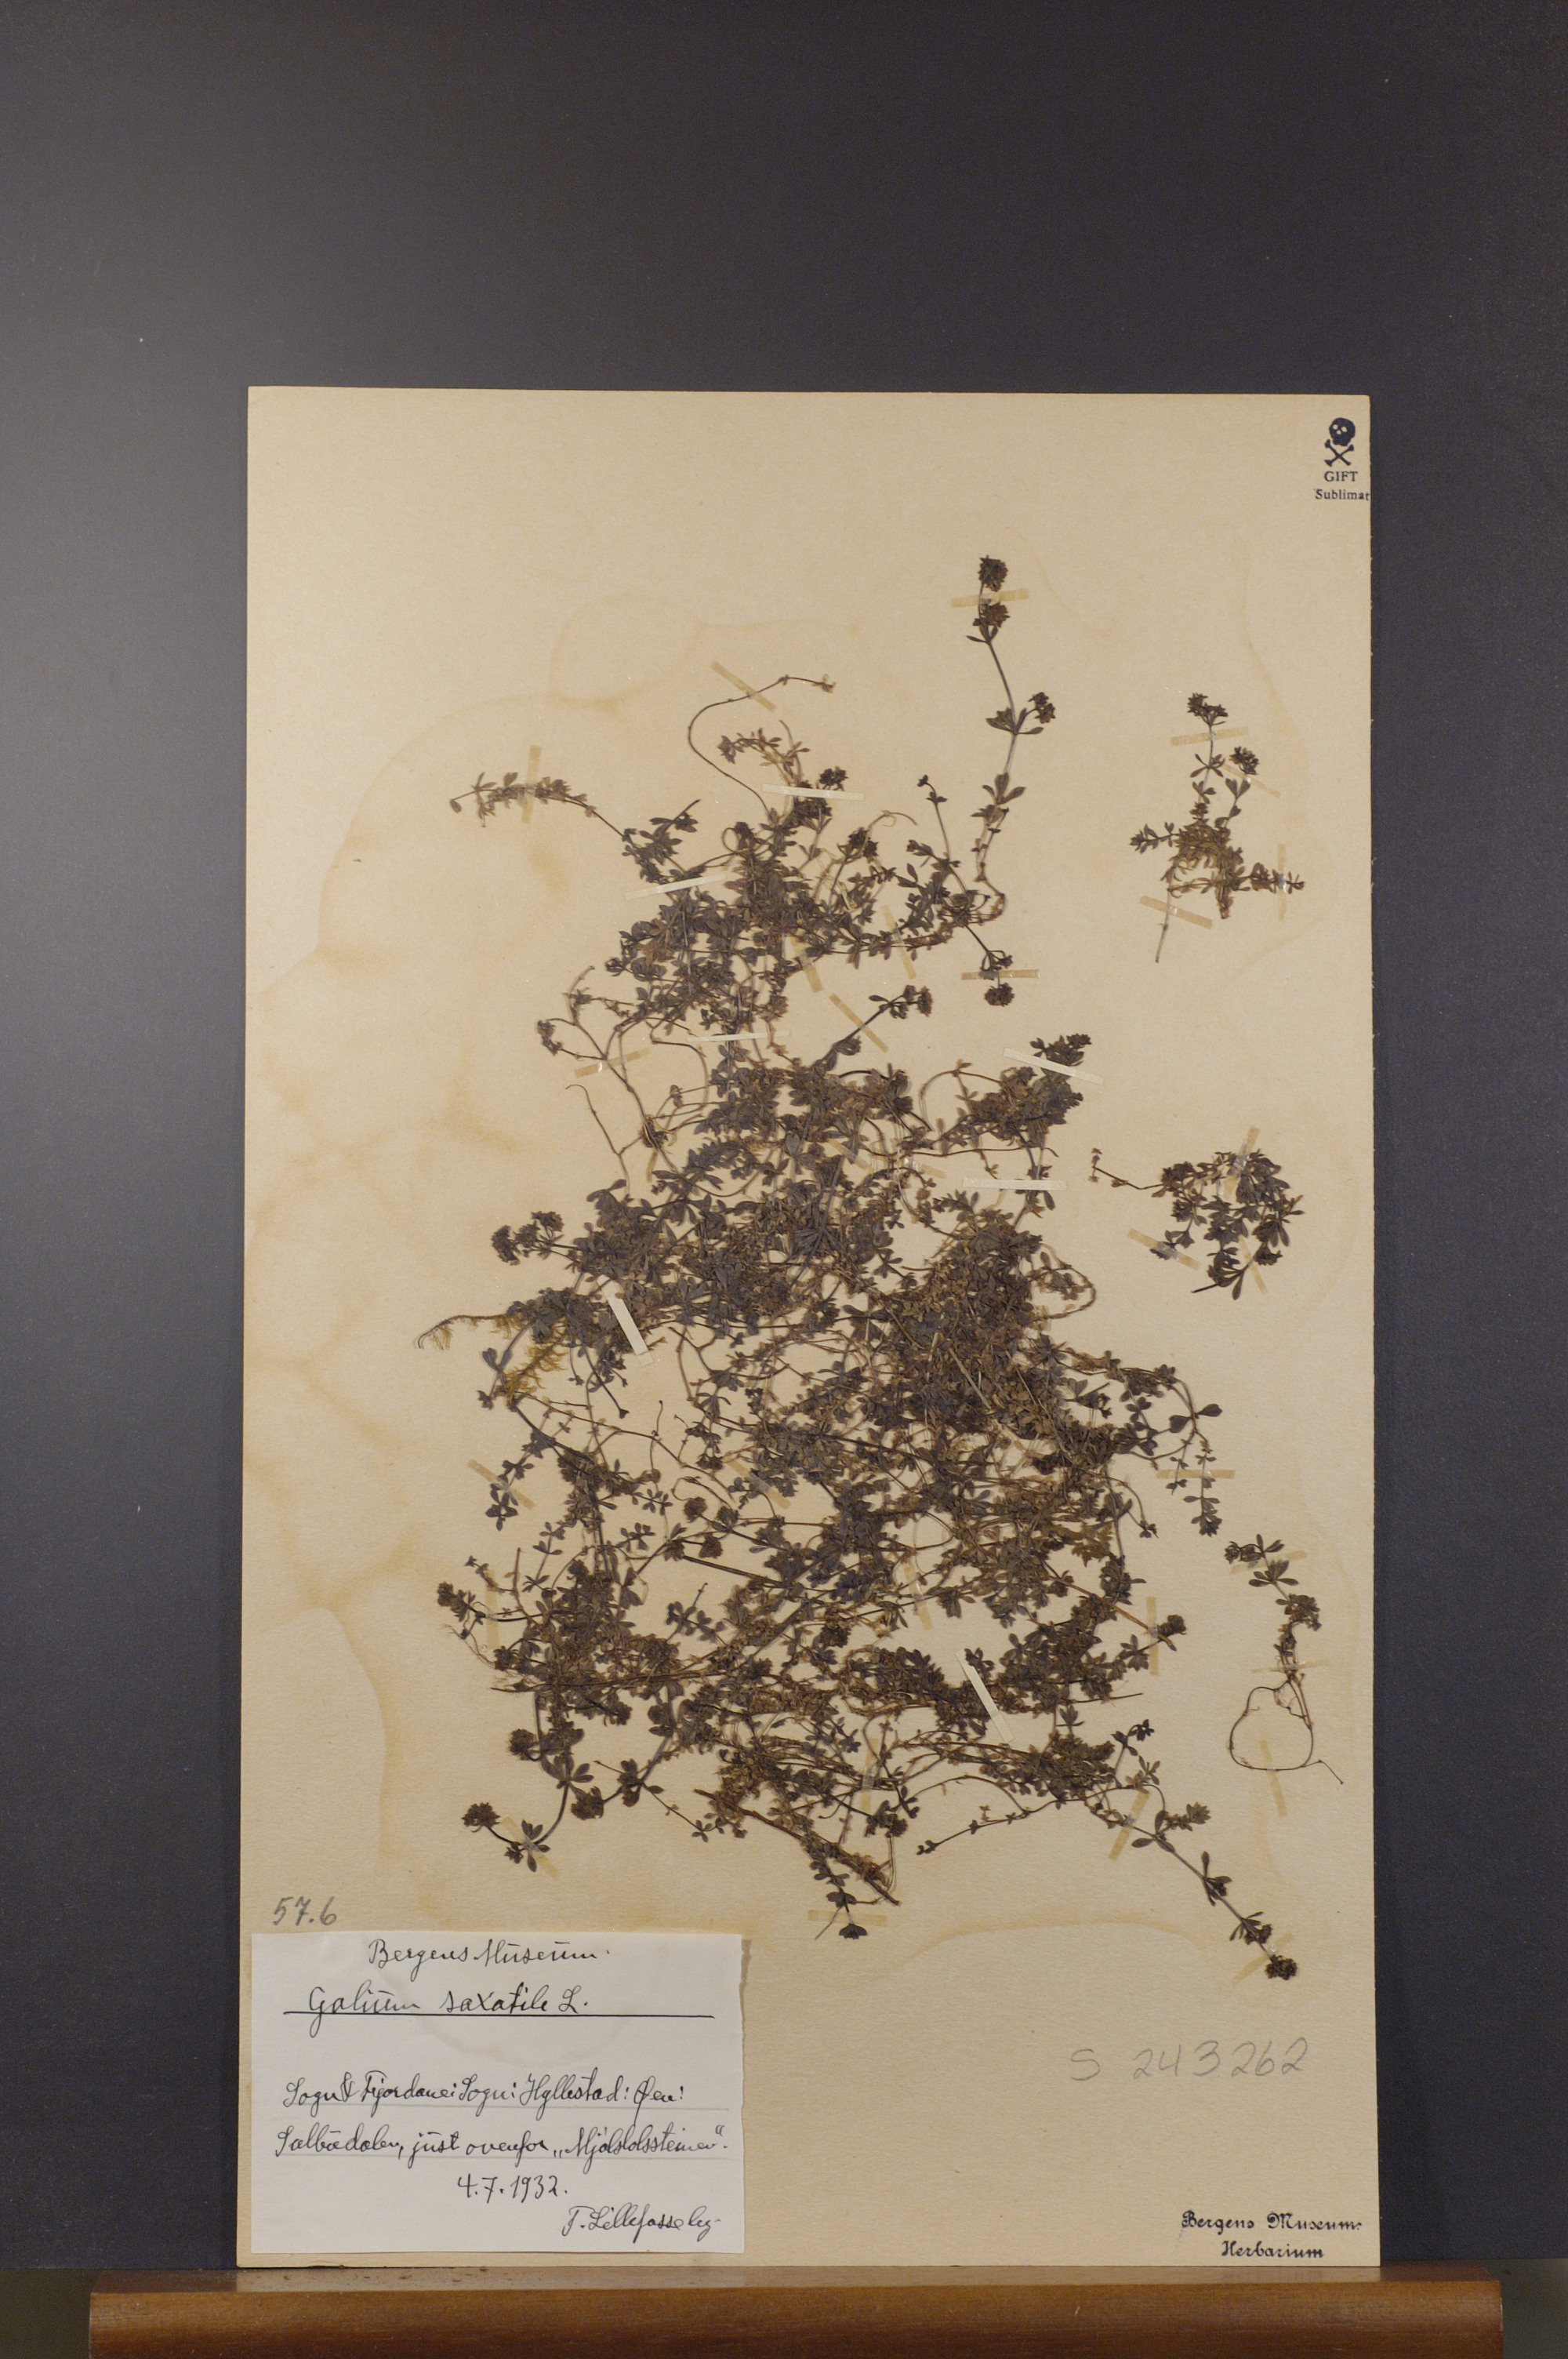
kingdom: Plantae
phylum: Tracheophyta
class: Magnoliopsida
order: Gentianales
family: Rubiaceae
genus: Galium
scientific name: Galium saxatile
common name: Heath bedstraw
